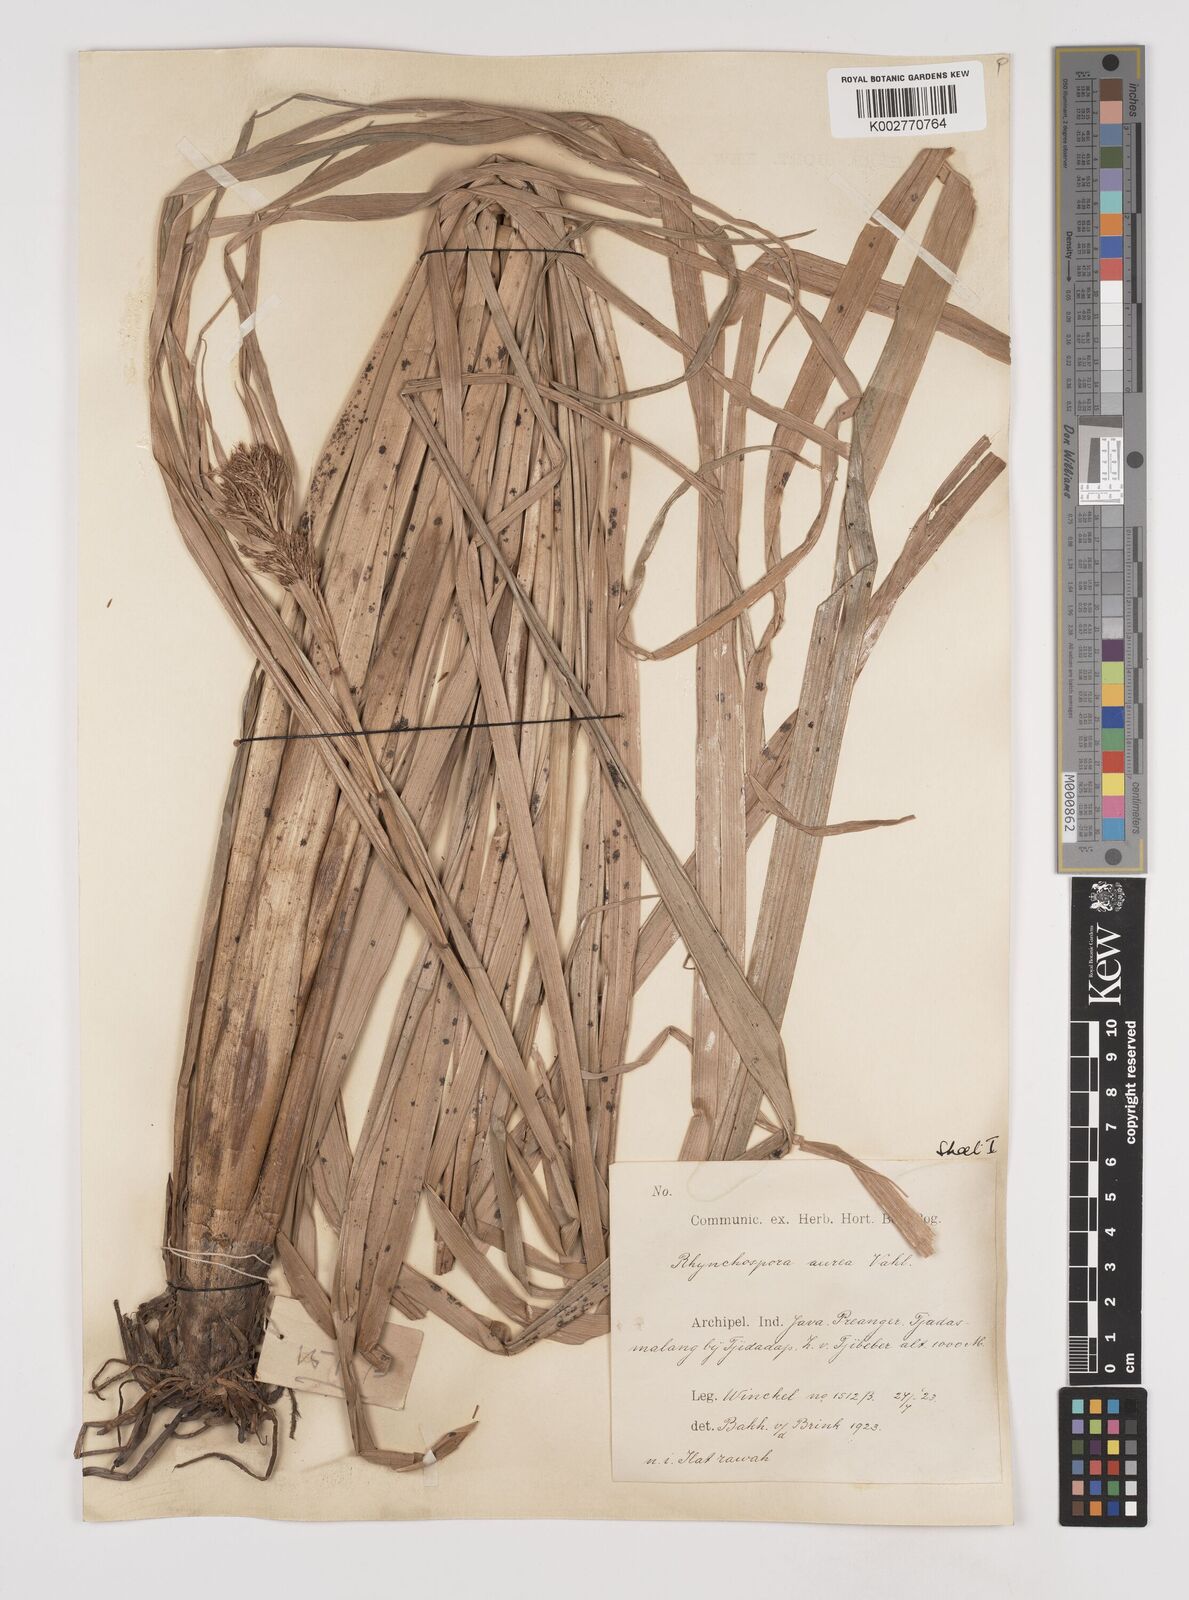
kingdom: Plantae
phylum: Tracheophyta
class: Liliopsida
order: Poales
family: Cyperaceae
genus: Rhynchospora
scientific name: Rhynchospora corymbosa
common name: Golden beak sedge
